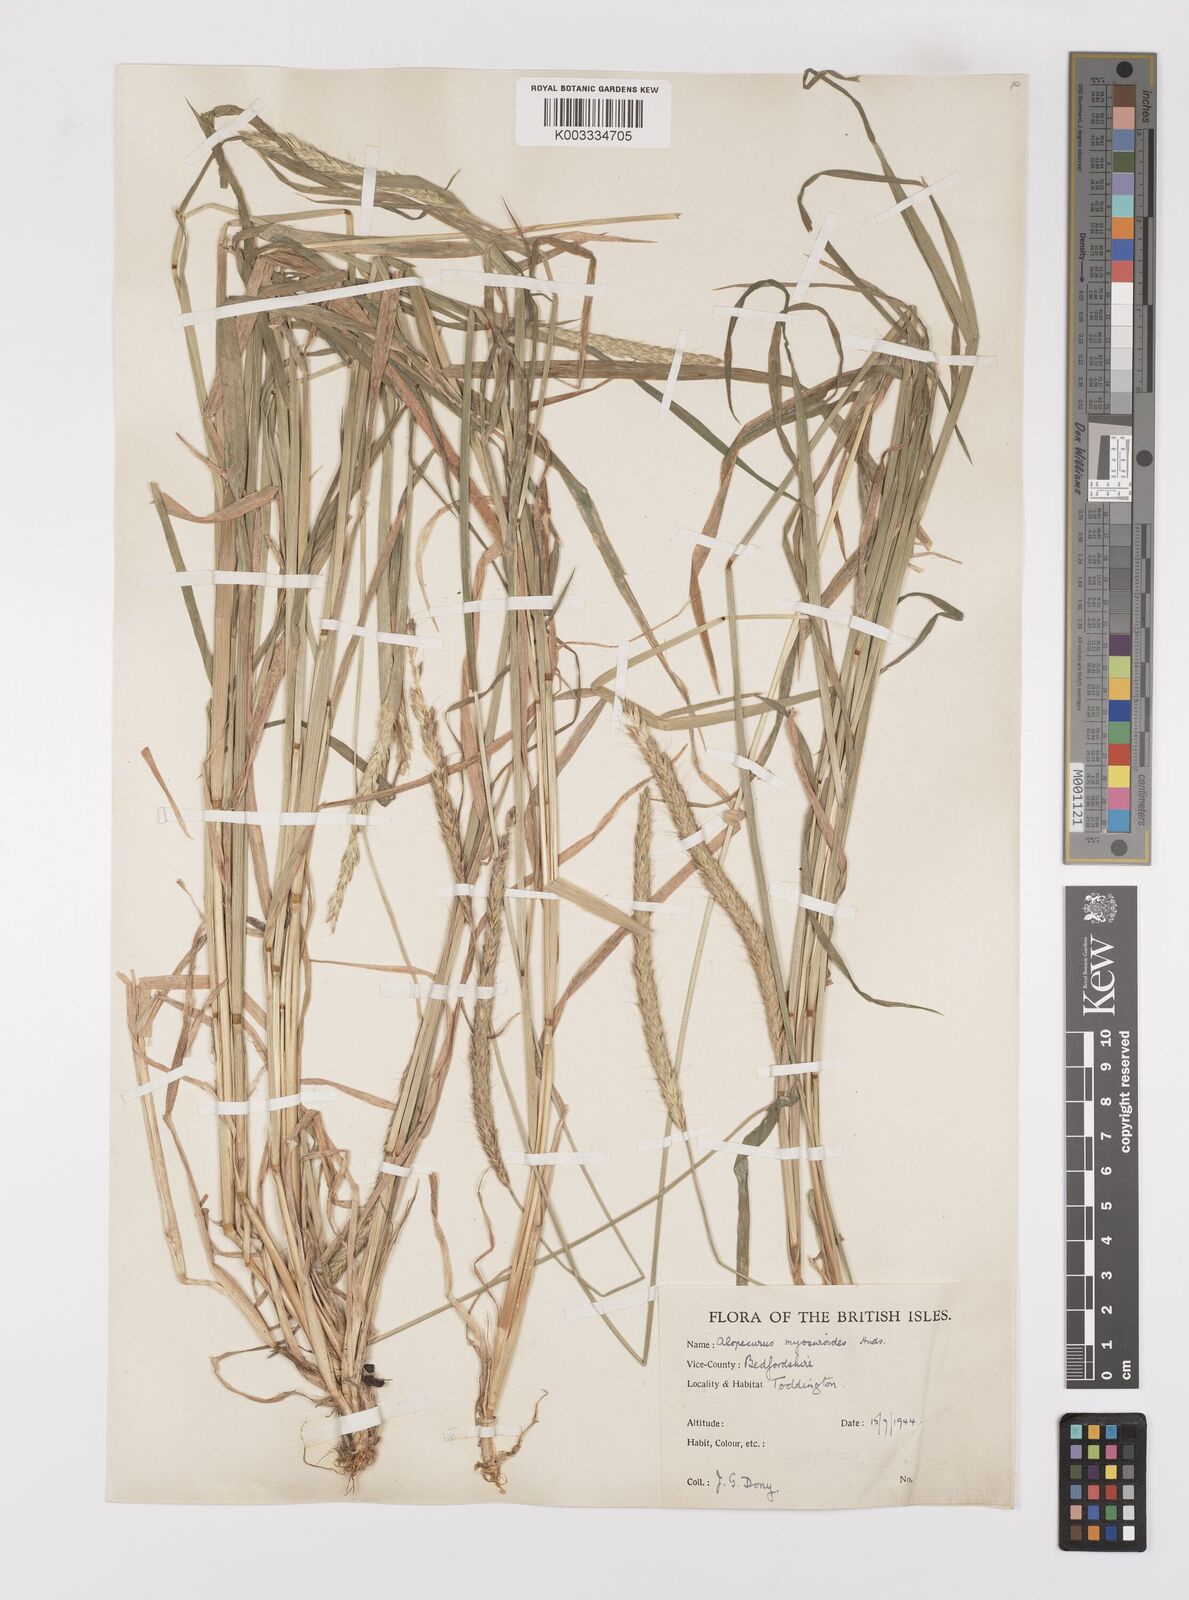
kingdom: Plantae
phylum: Tracheophyta
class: Liliopsida
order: Poales
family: Poaceae
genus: Alopecurus
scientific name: Alopecurus myosuroides
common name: Black-grass
